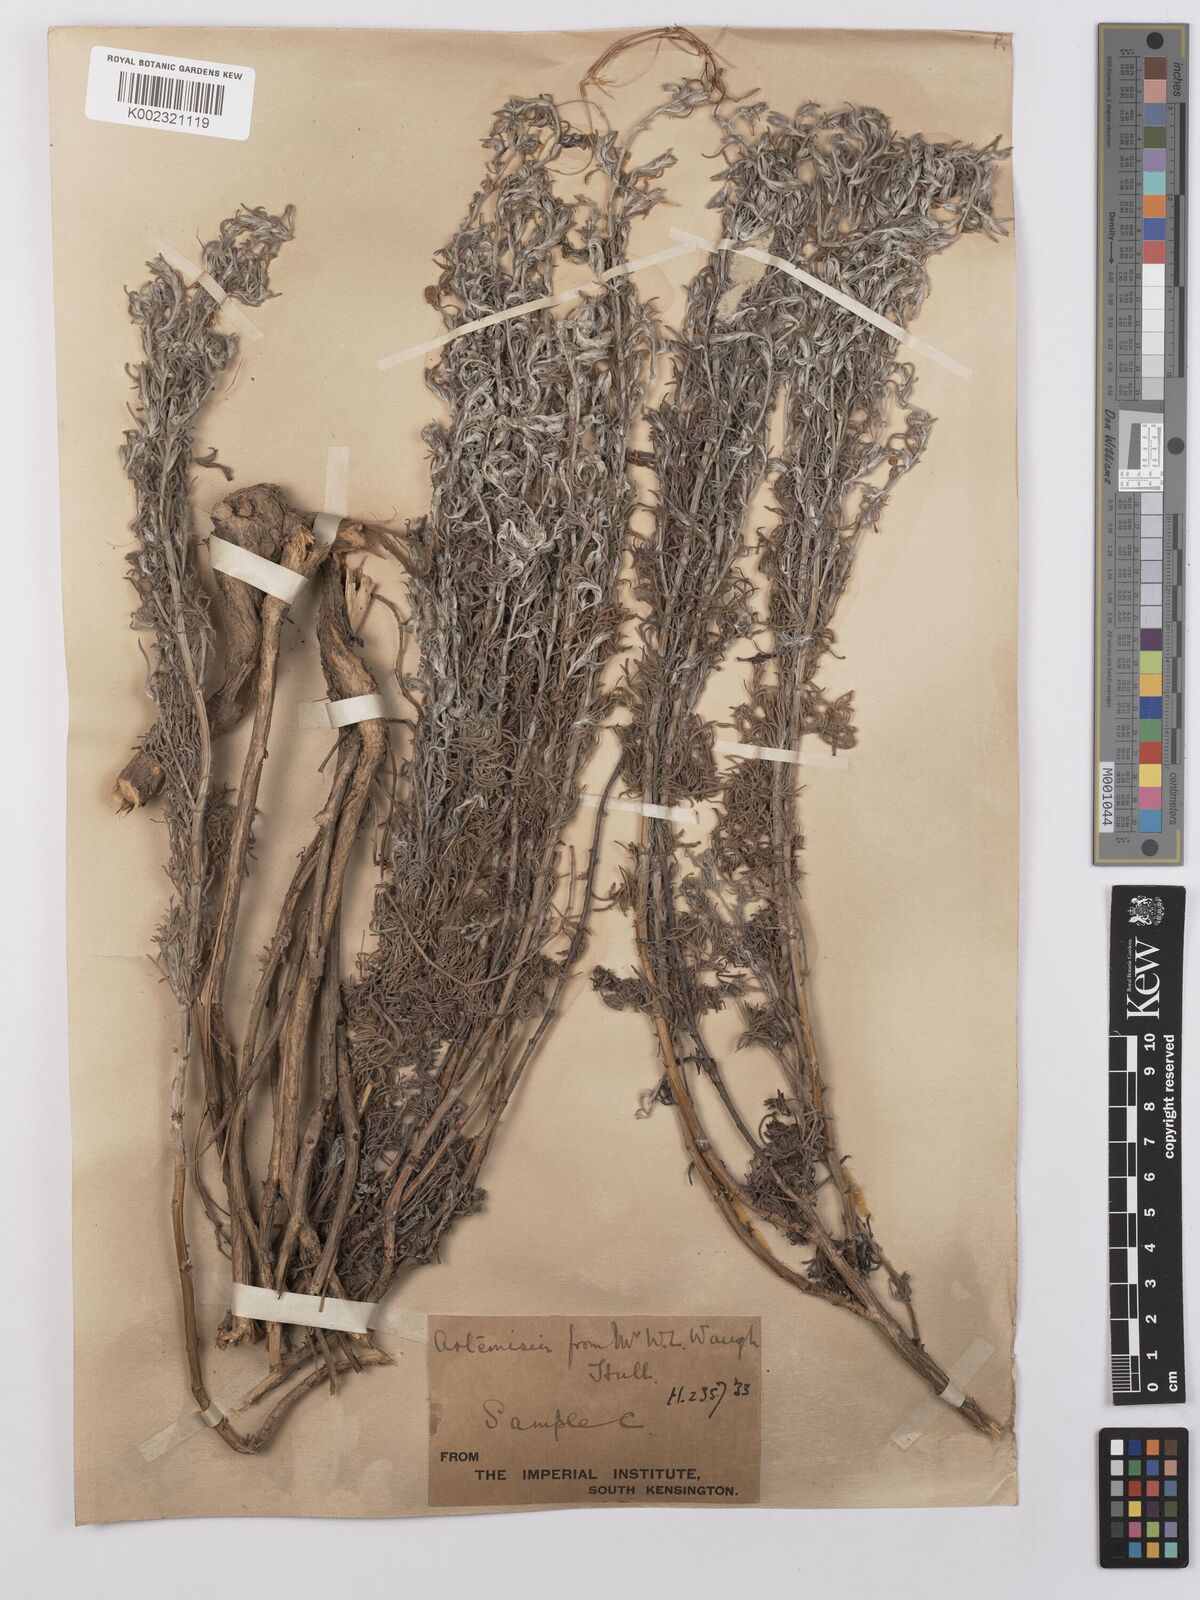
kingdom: Plantae
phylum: Tracheophyta
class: Magnoliopsida
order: Asterales
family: Asteraceae
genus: Artemisia
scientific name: Artemisia maritima
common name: Wormseed
